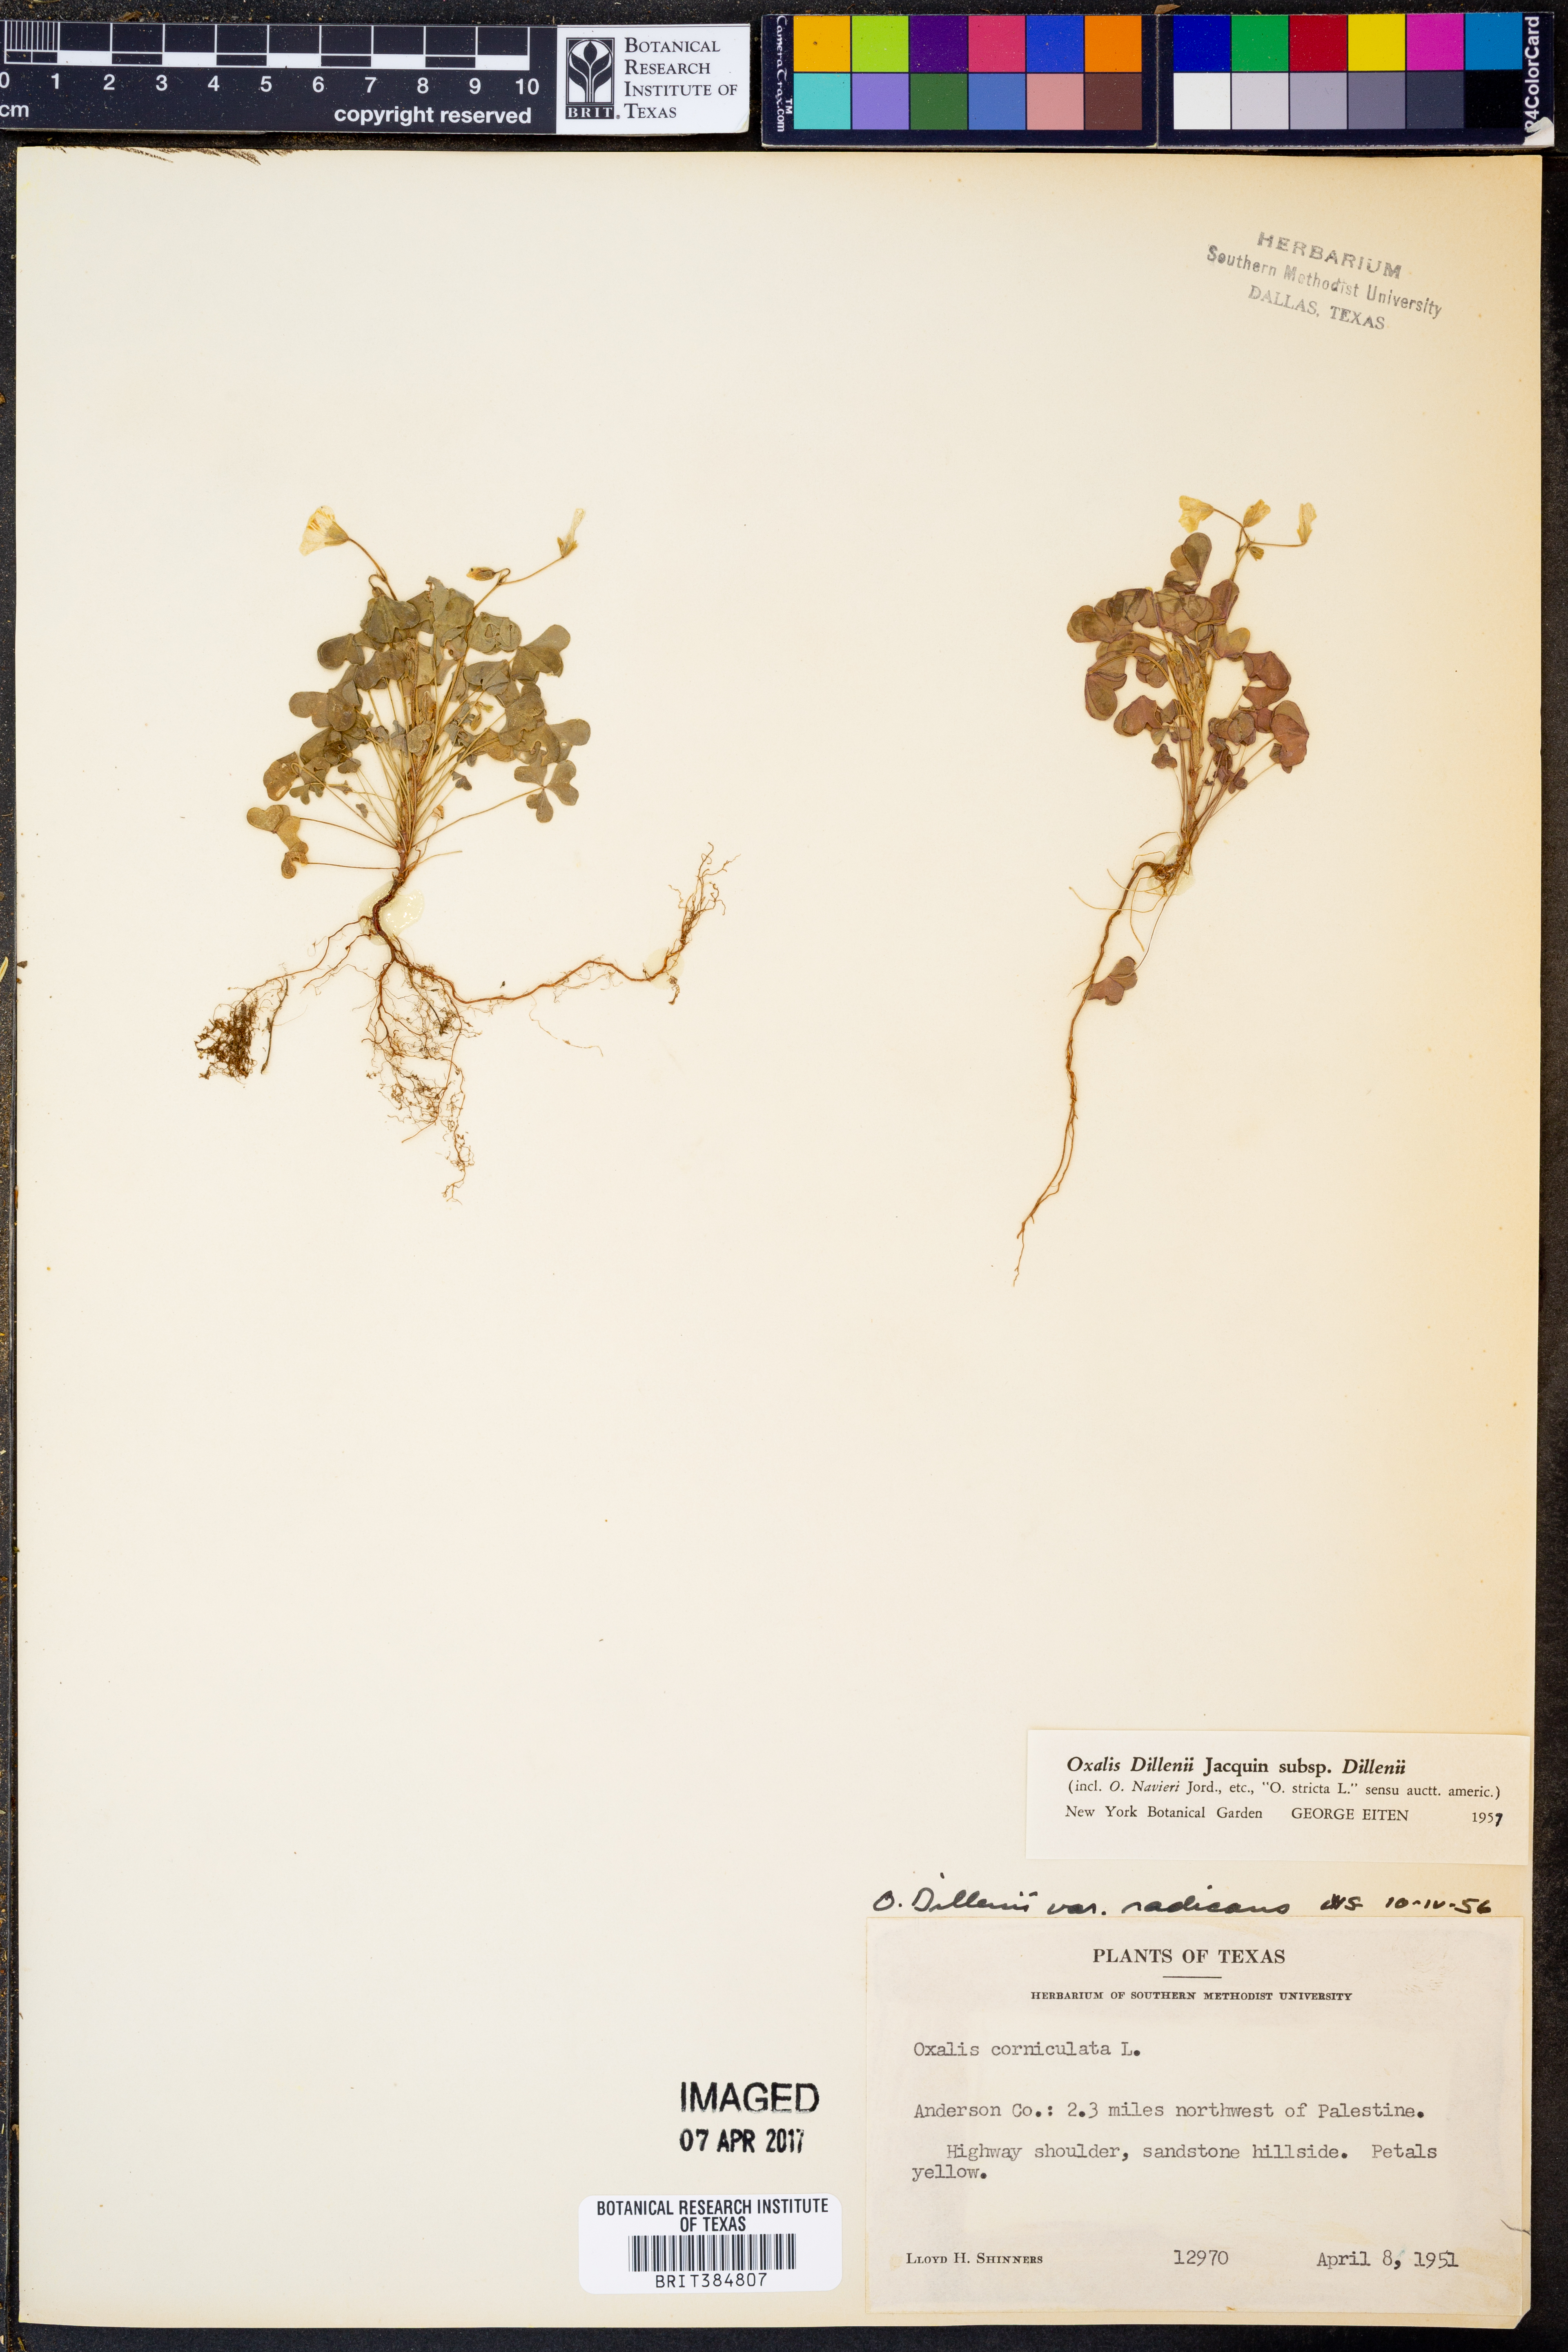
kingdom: Plantae
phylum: Tracheophyta
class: Magnoliopsida
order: Oxalidales
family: Oxalidaceae
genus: Oxalis
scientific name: Oxalis dillenii
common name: Sussex yellow-sorrel
